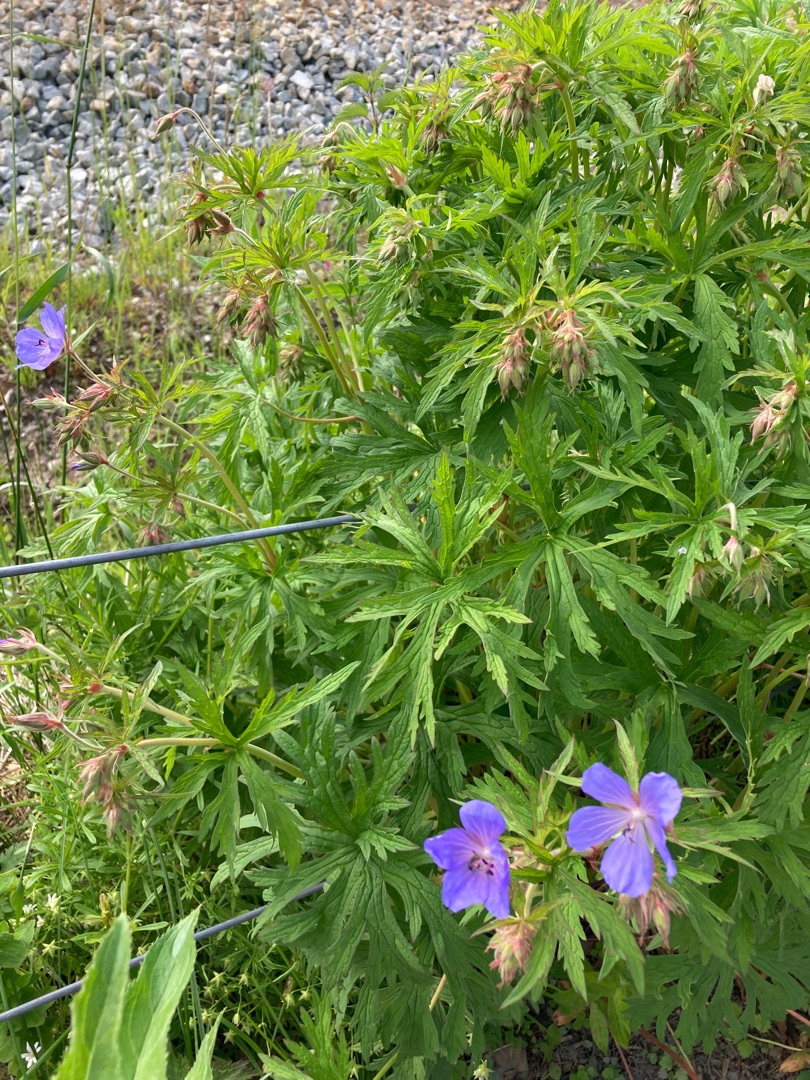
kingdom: Plantae
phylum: Tracheophyta
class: Magnoliopsida
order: Geraniales
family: Geraniaceae
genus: Geranium
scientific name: Geranium pratense
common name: Eng-storkenæb
